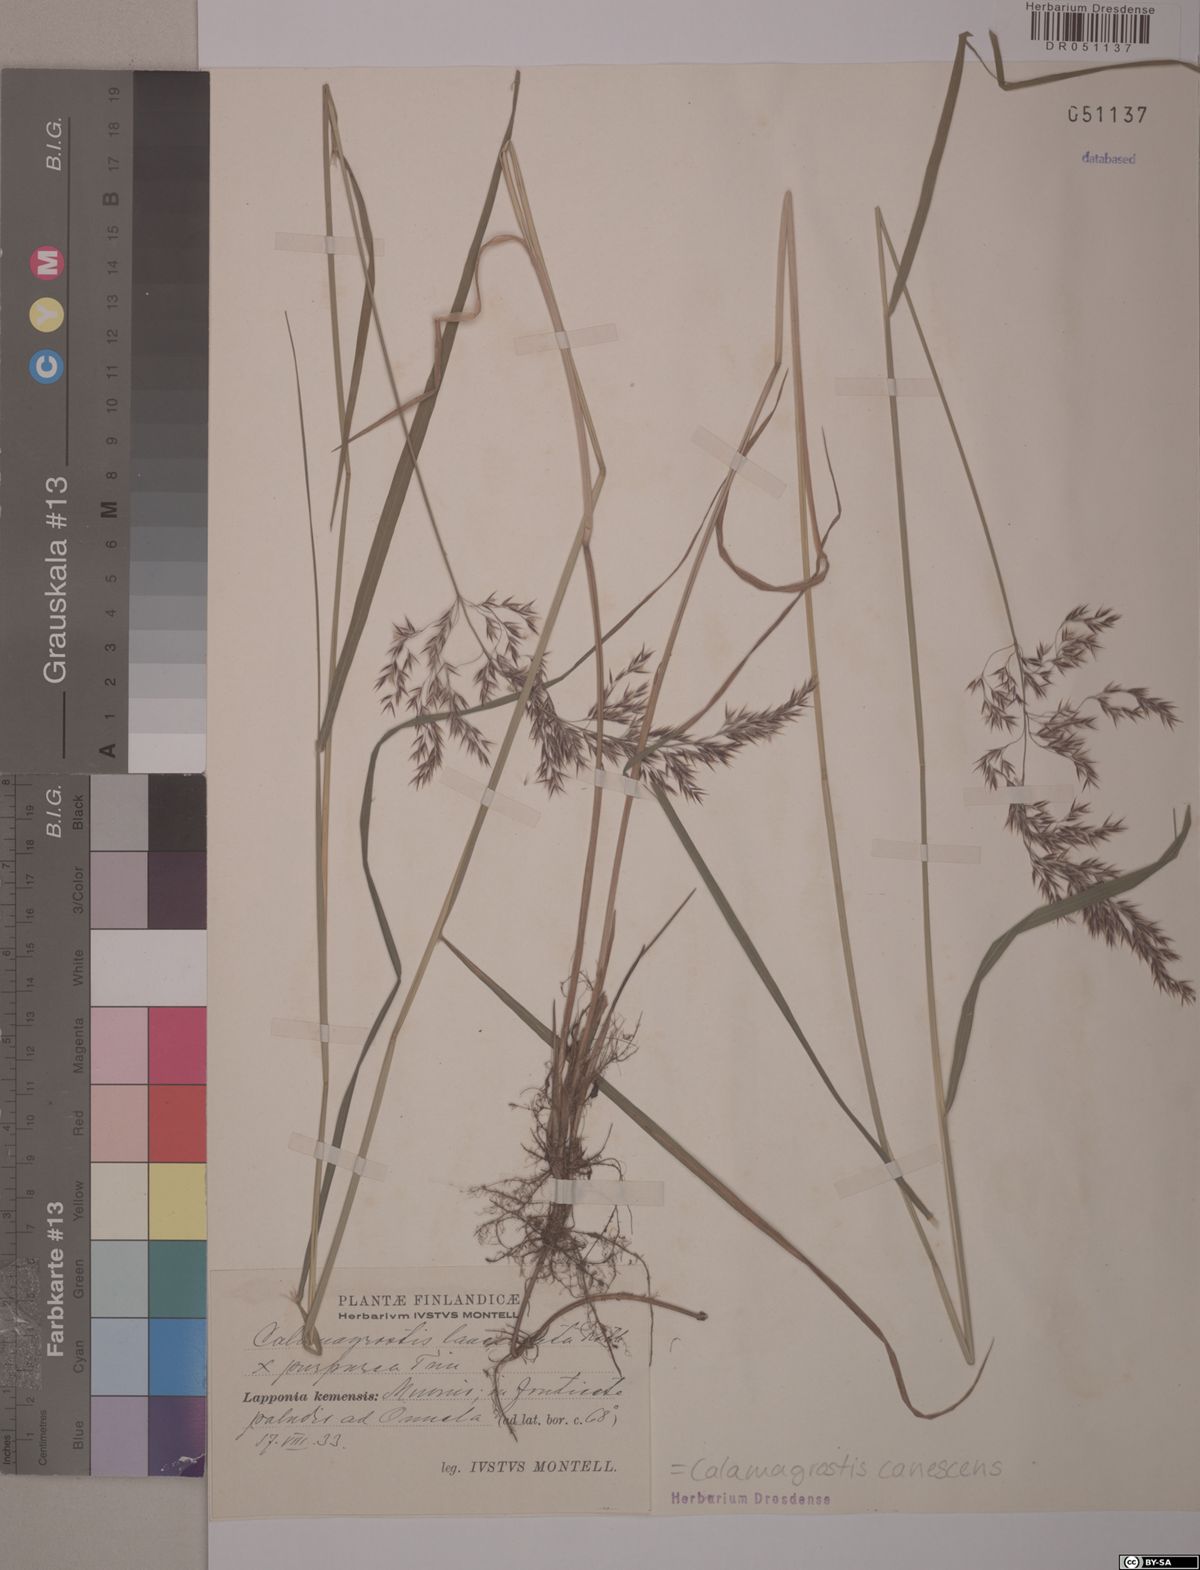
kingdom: Plantae
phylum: Tracheophyta
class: Liliopsida
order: Poales
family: Poaceae
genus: Calamagrostis
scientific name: Calamagrostis canescens
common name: Purple small-reed
